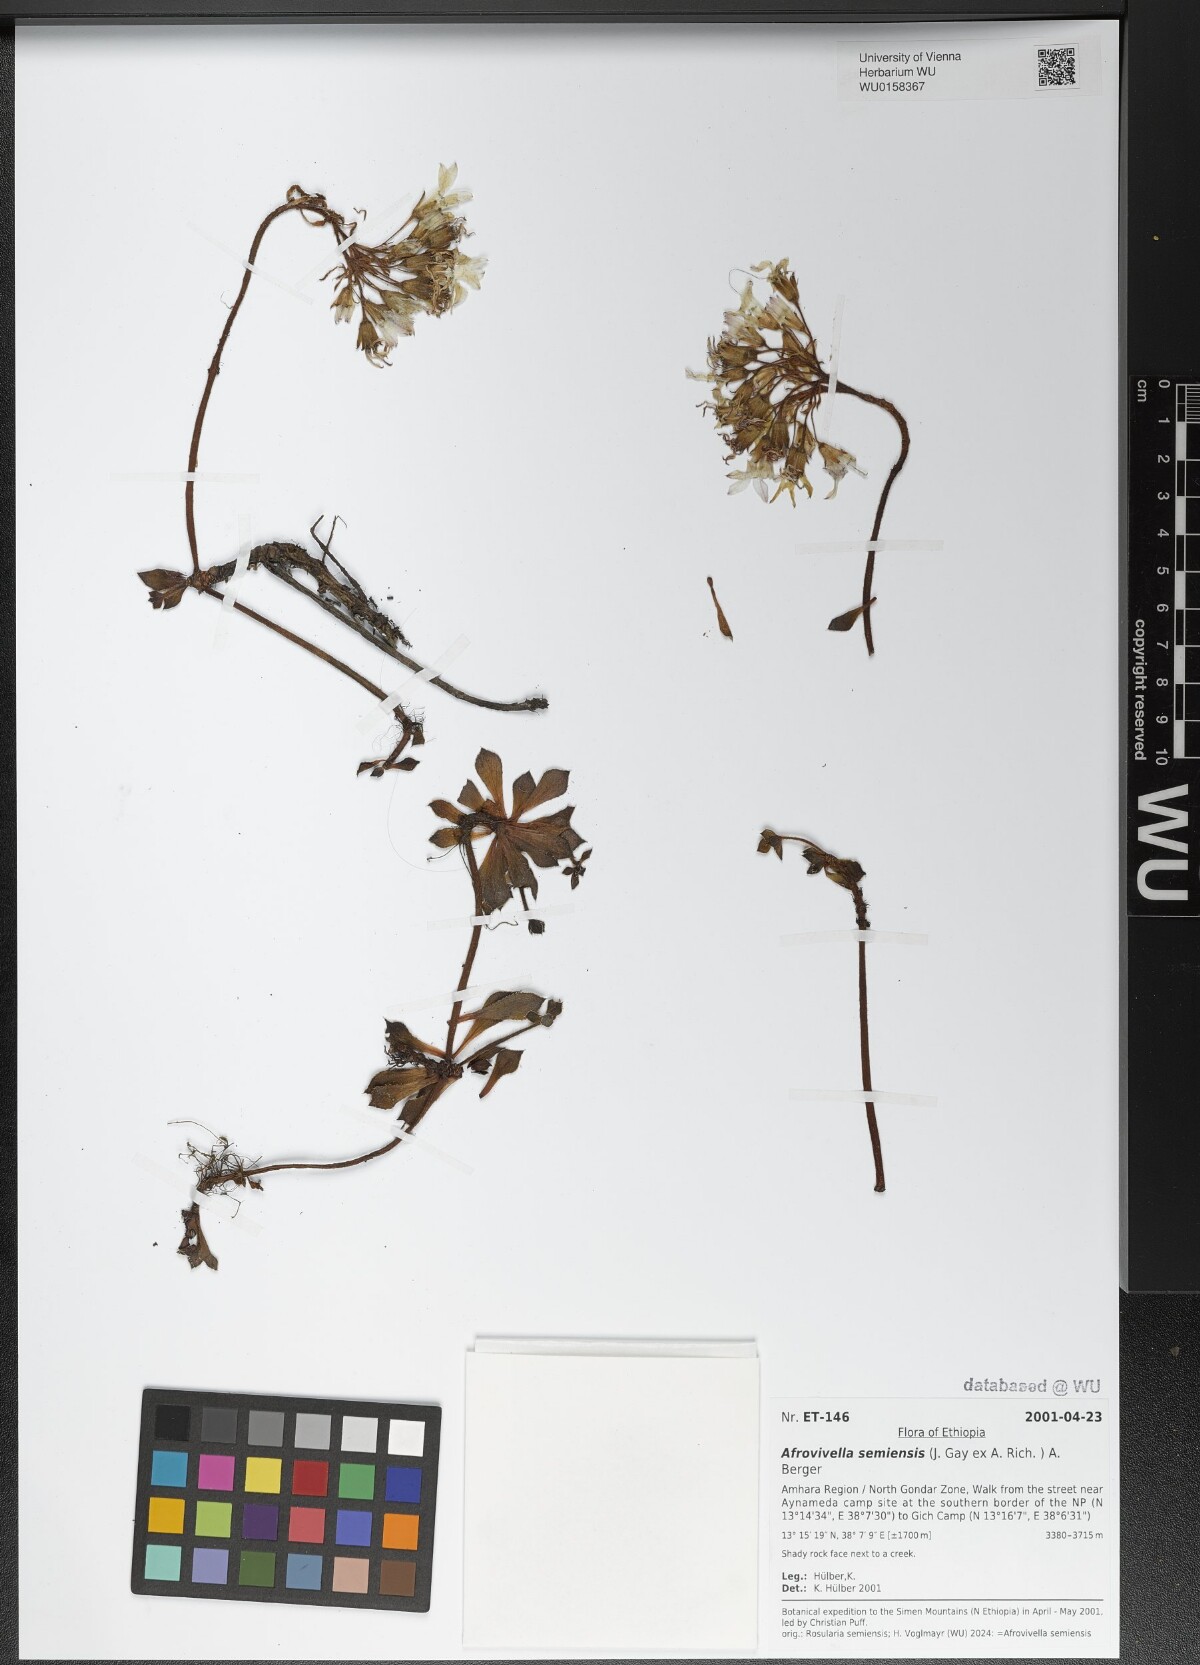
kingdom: Plantae
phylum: Tracheophyta
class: Magnoliopsida
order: Saxifragales
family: Crassulaceae
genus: Afrovivella
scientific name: Afrovivella semiensis
